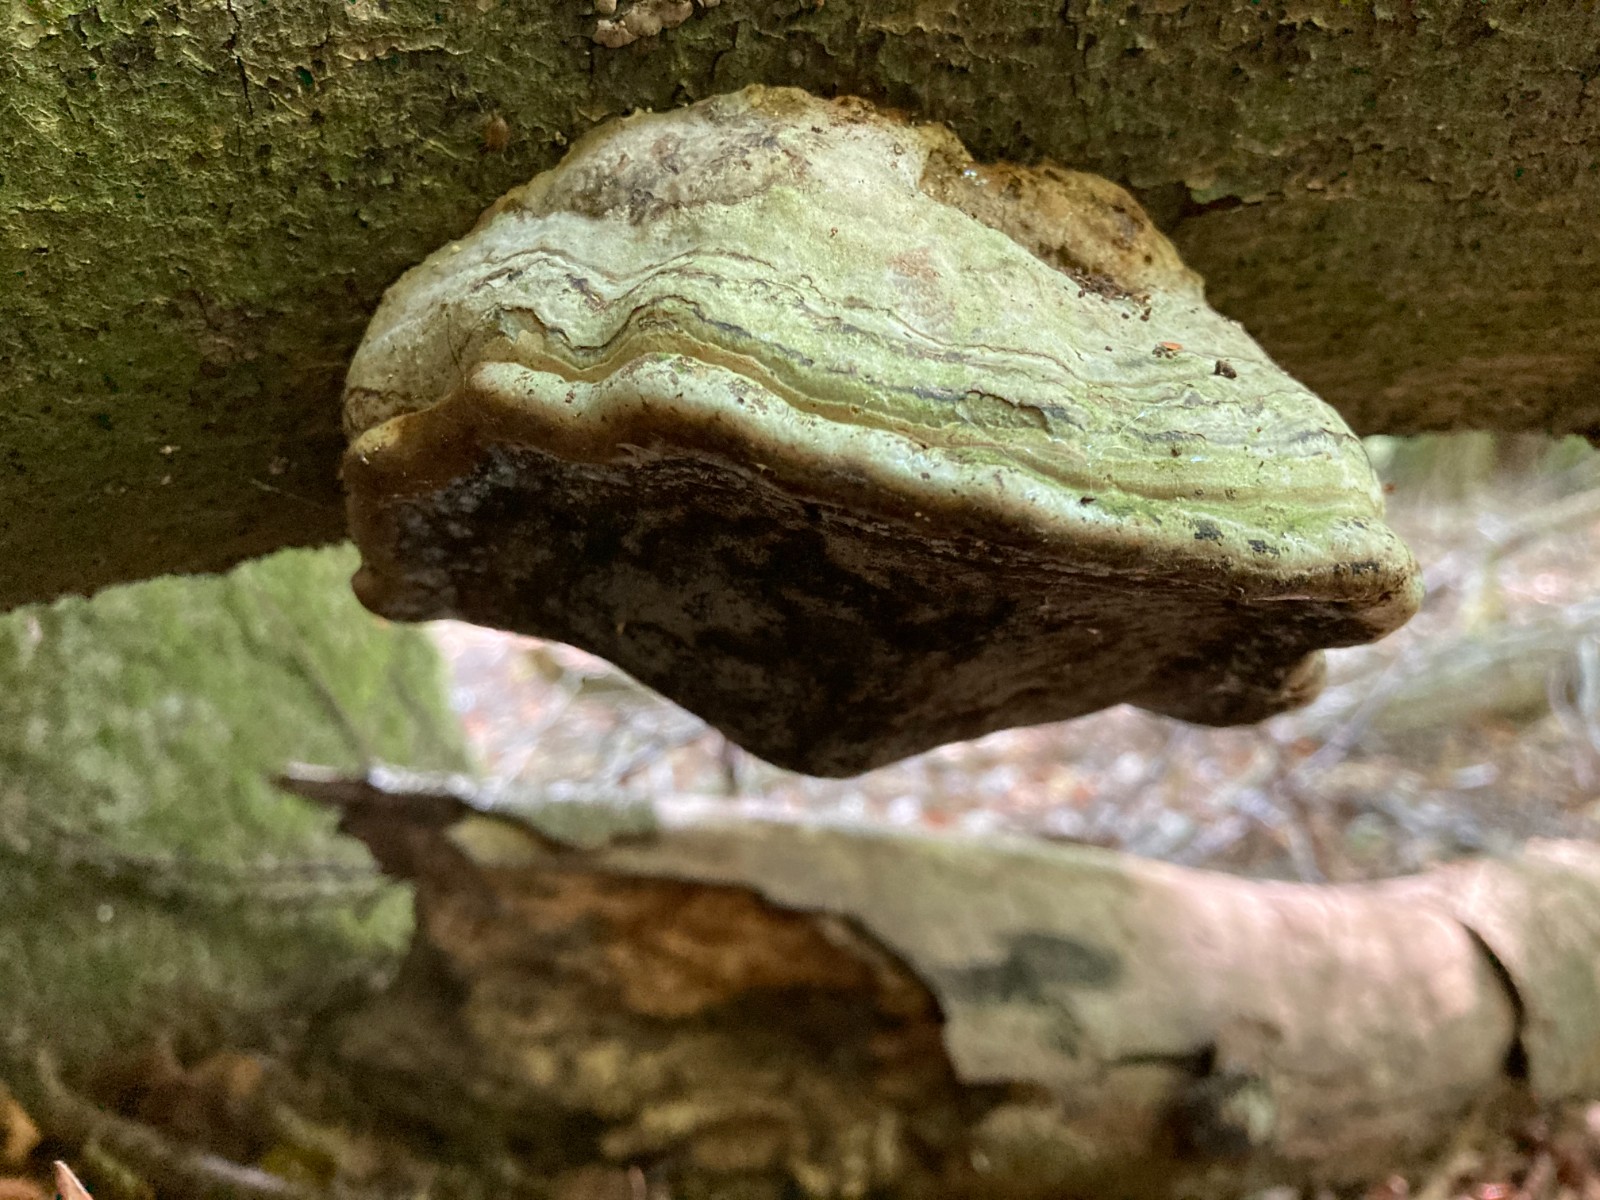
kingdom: Fungi
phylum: Basidiomycota
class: Agaricomycetes
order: Polyporales
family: Polyporaceae
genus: Fomes
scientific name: Fomes fomentarius
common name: tøndersvamp
